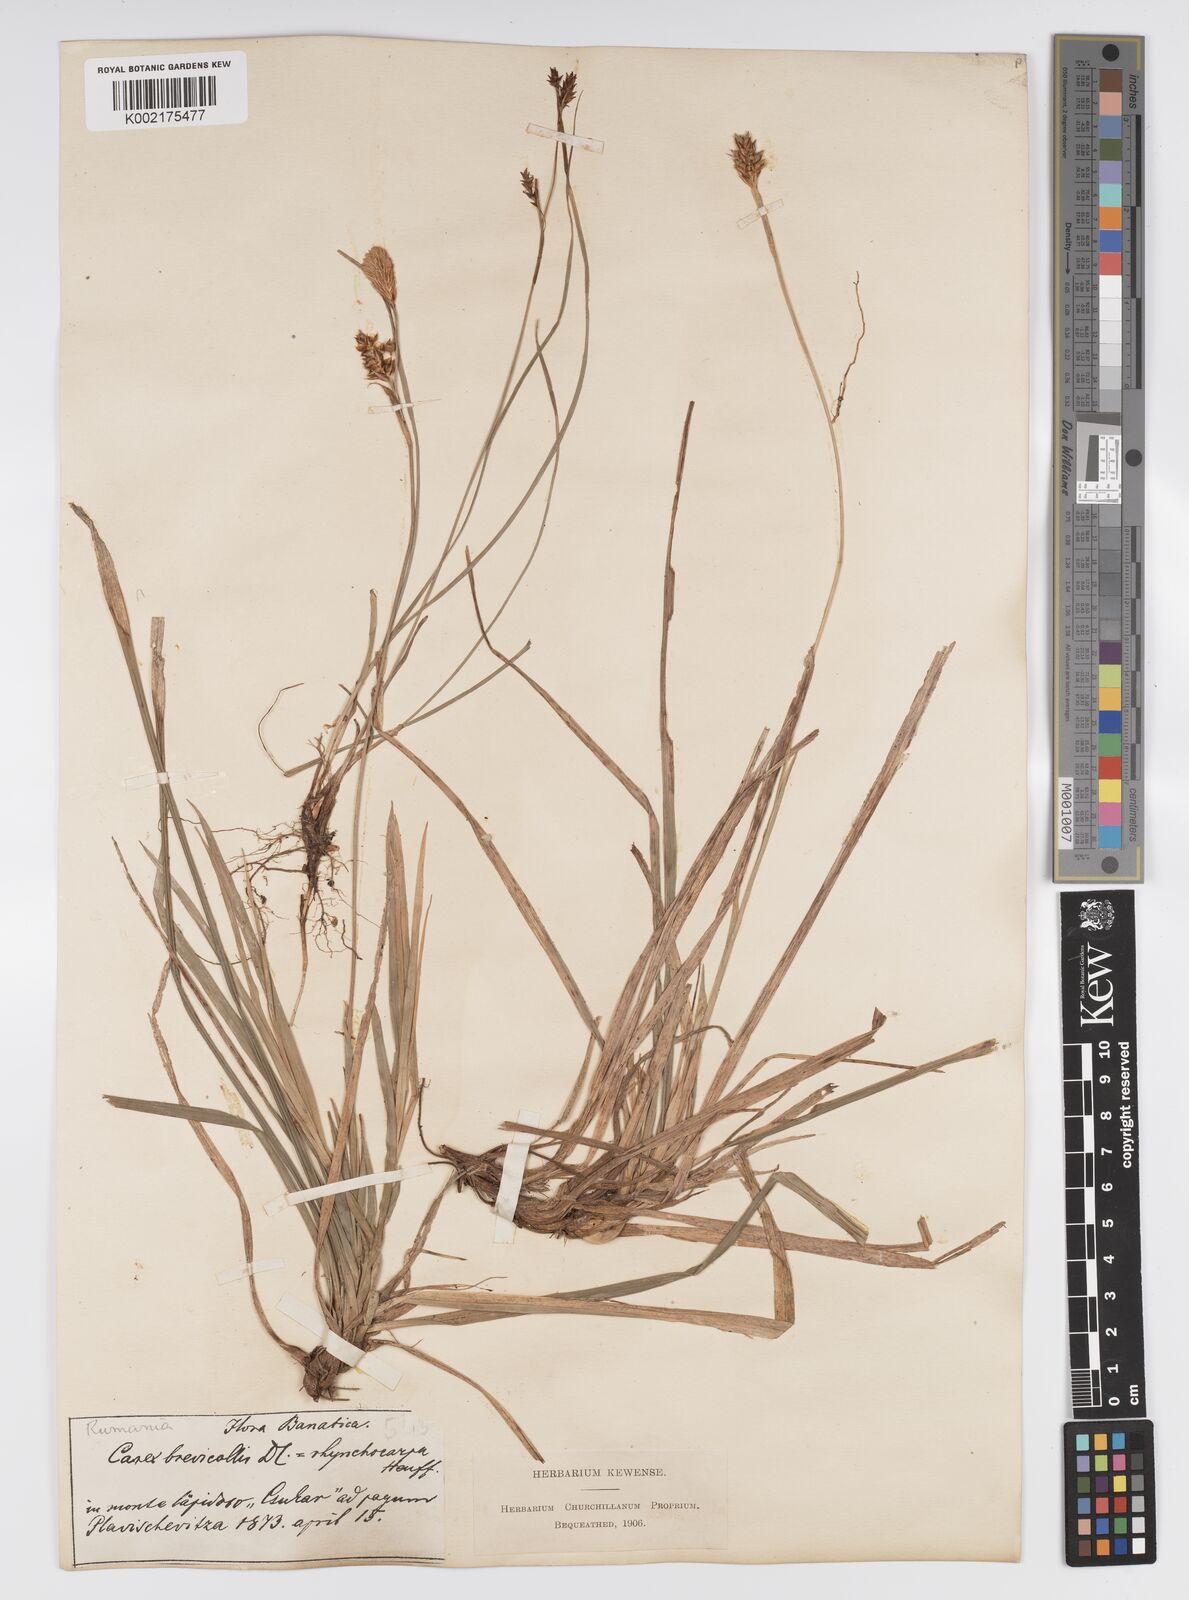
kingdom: Plantae
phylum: Tracheophyta
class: Liliopsida
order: Poales
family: Cyperaceae
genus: Carex
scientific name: Carex brevicollis
